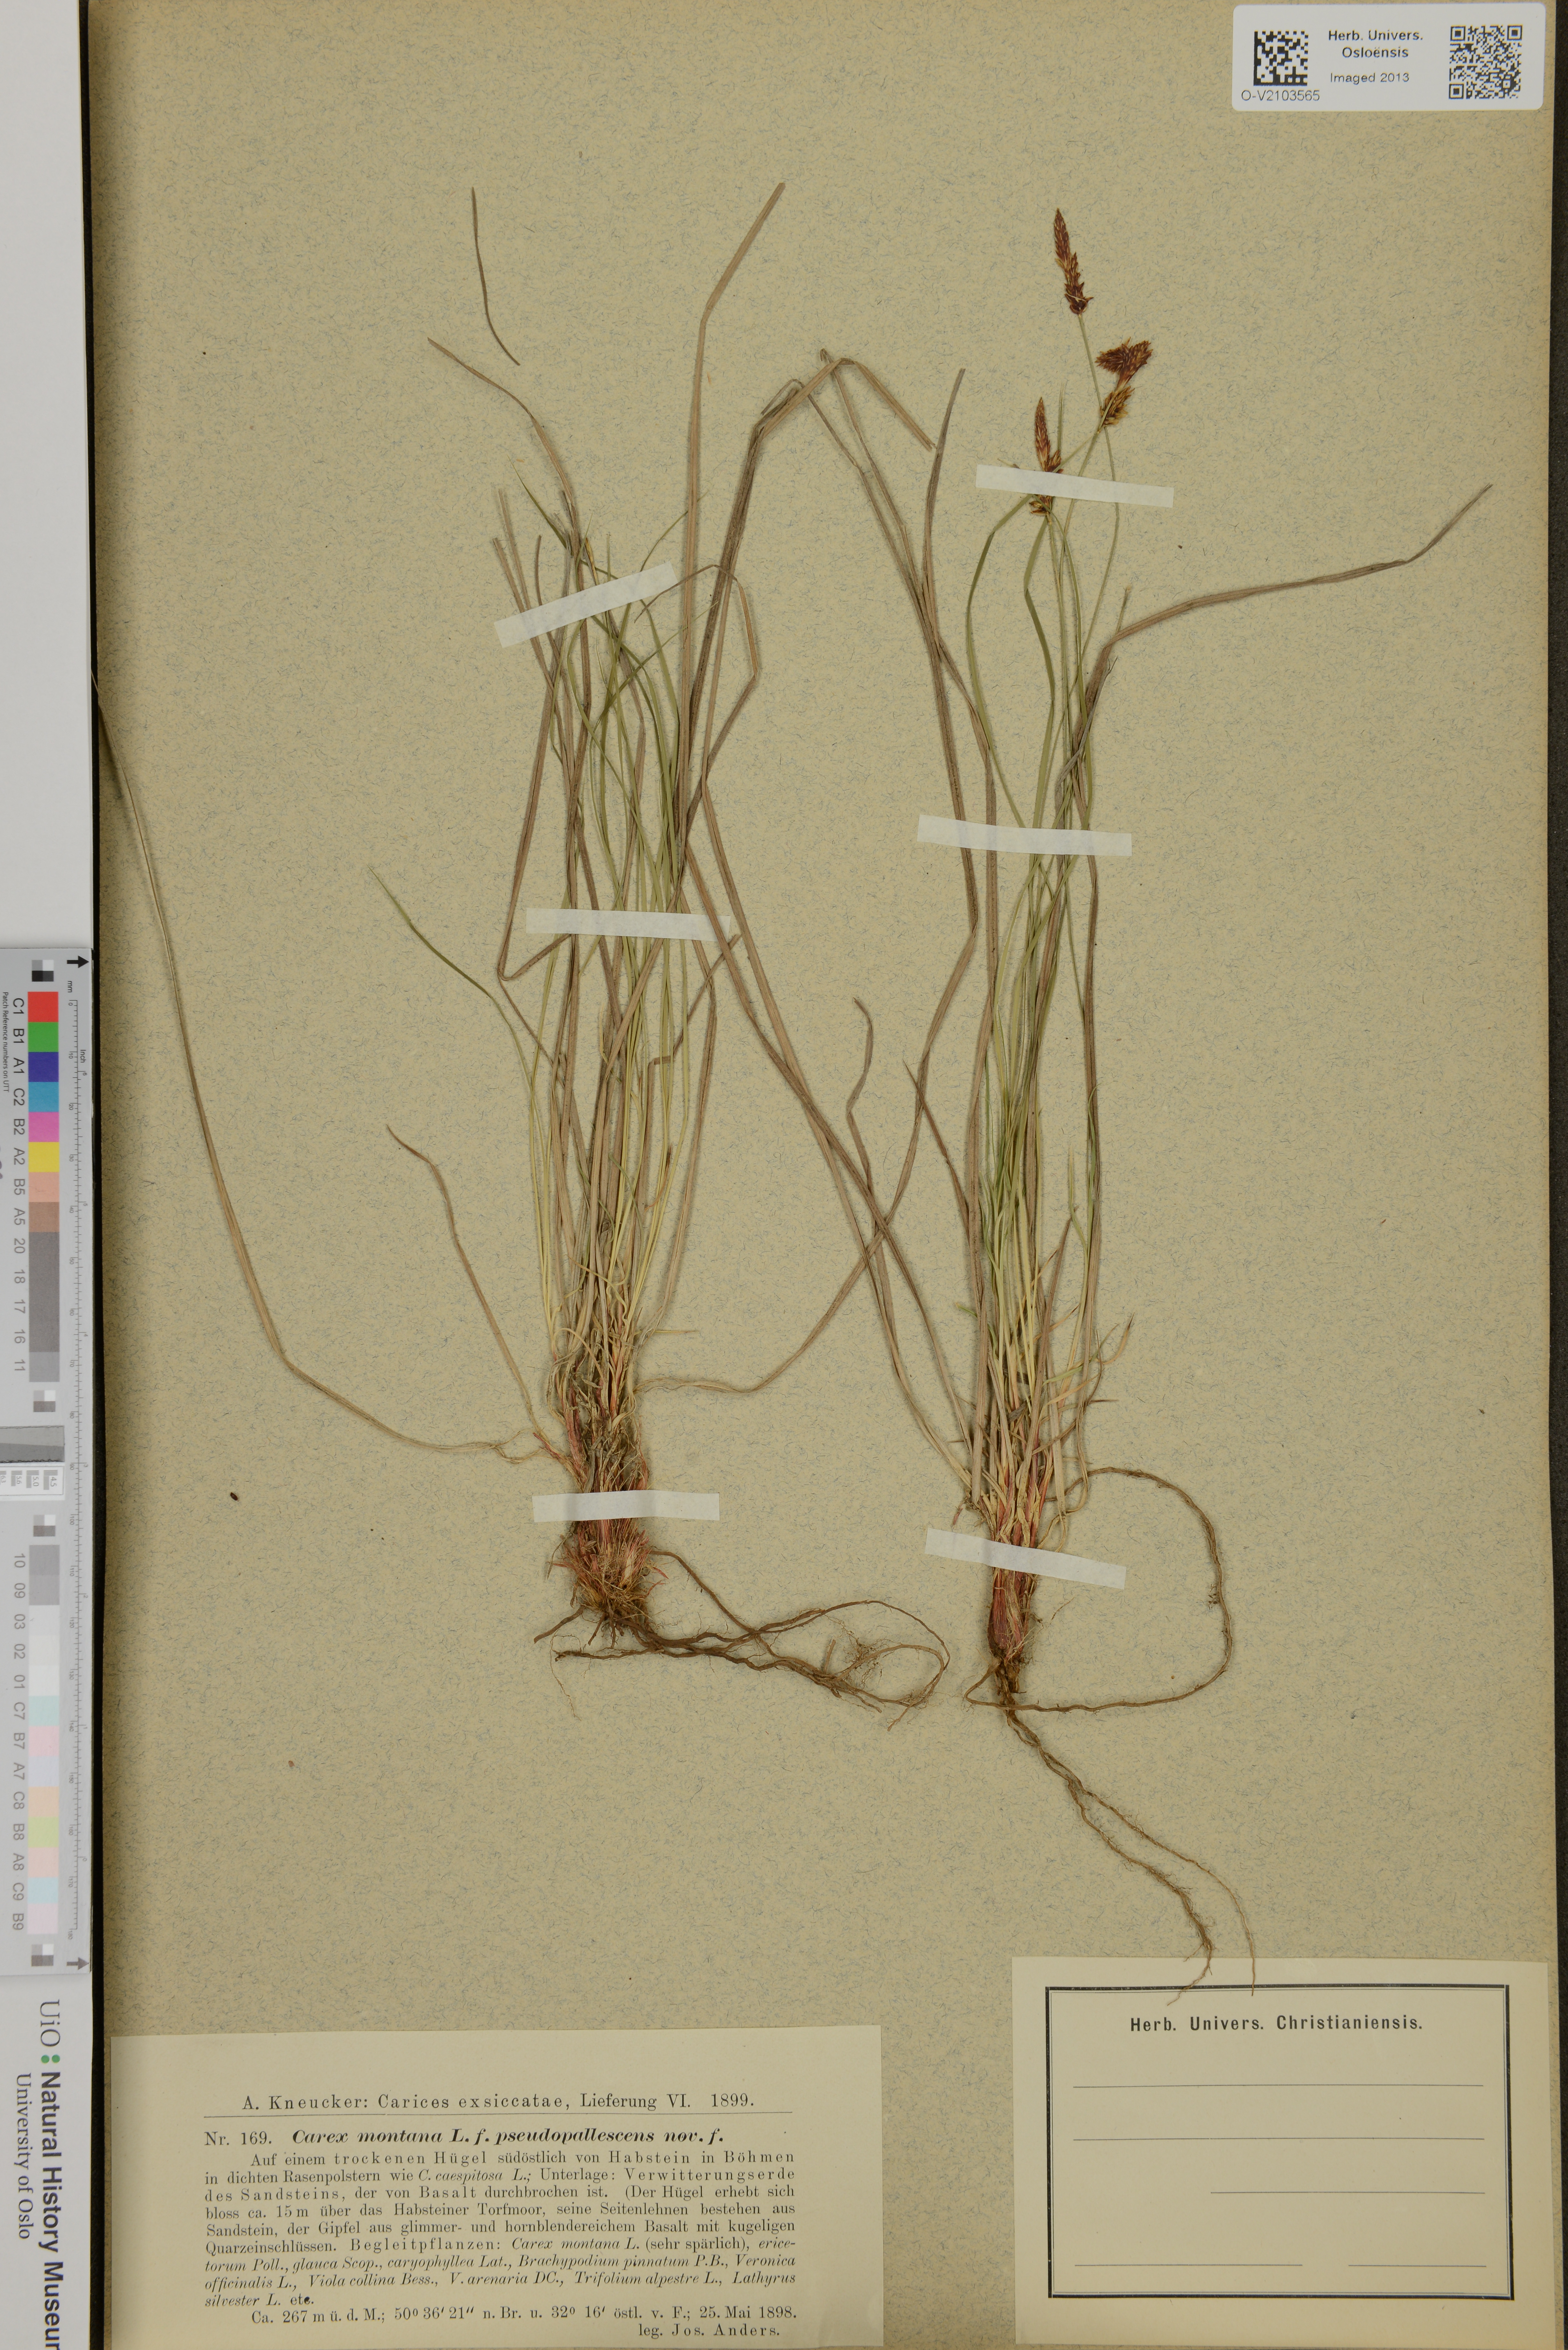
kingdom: Plantae
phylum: Tracheophyta
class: Liliopsida
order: Poales
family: Cyperaceae
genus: Carex
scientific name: Carex montana
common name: Soft-leaved sedge
